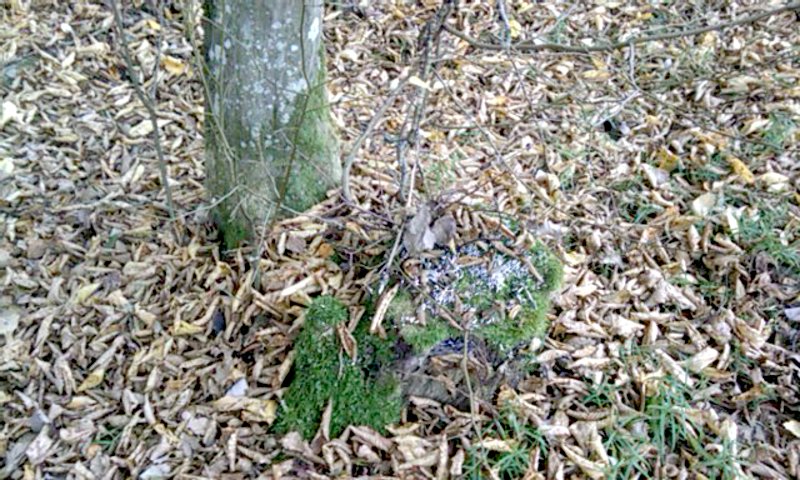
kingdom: Plantae
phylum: Tracheophyta
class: Magnoliopsida
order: Fagales
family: Betulaceae
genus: Carpinus
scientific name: Carpinus betulus
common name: Hornbeam
